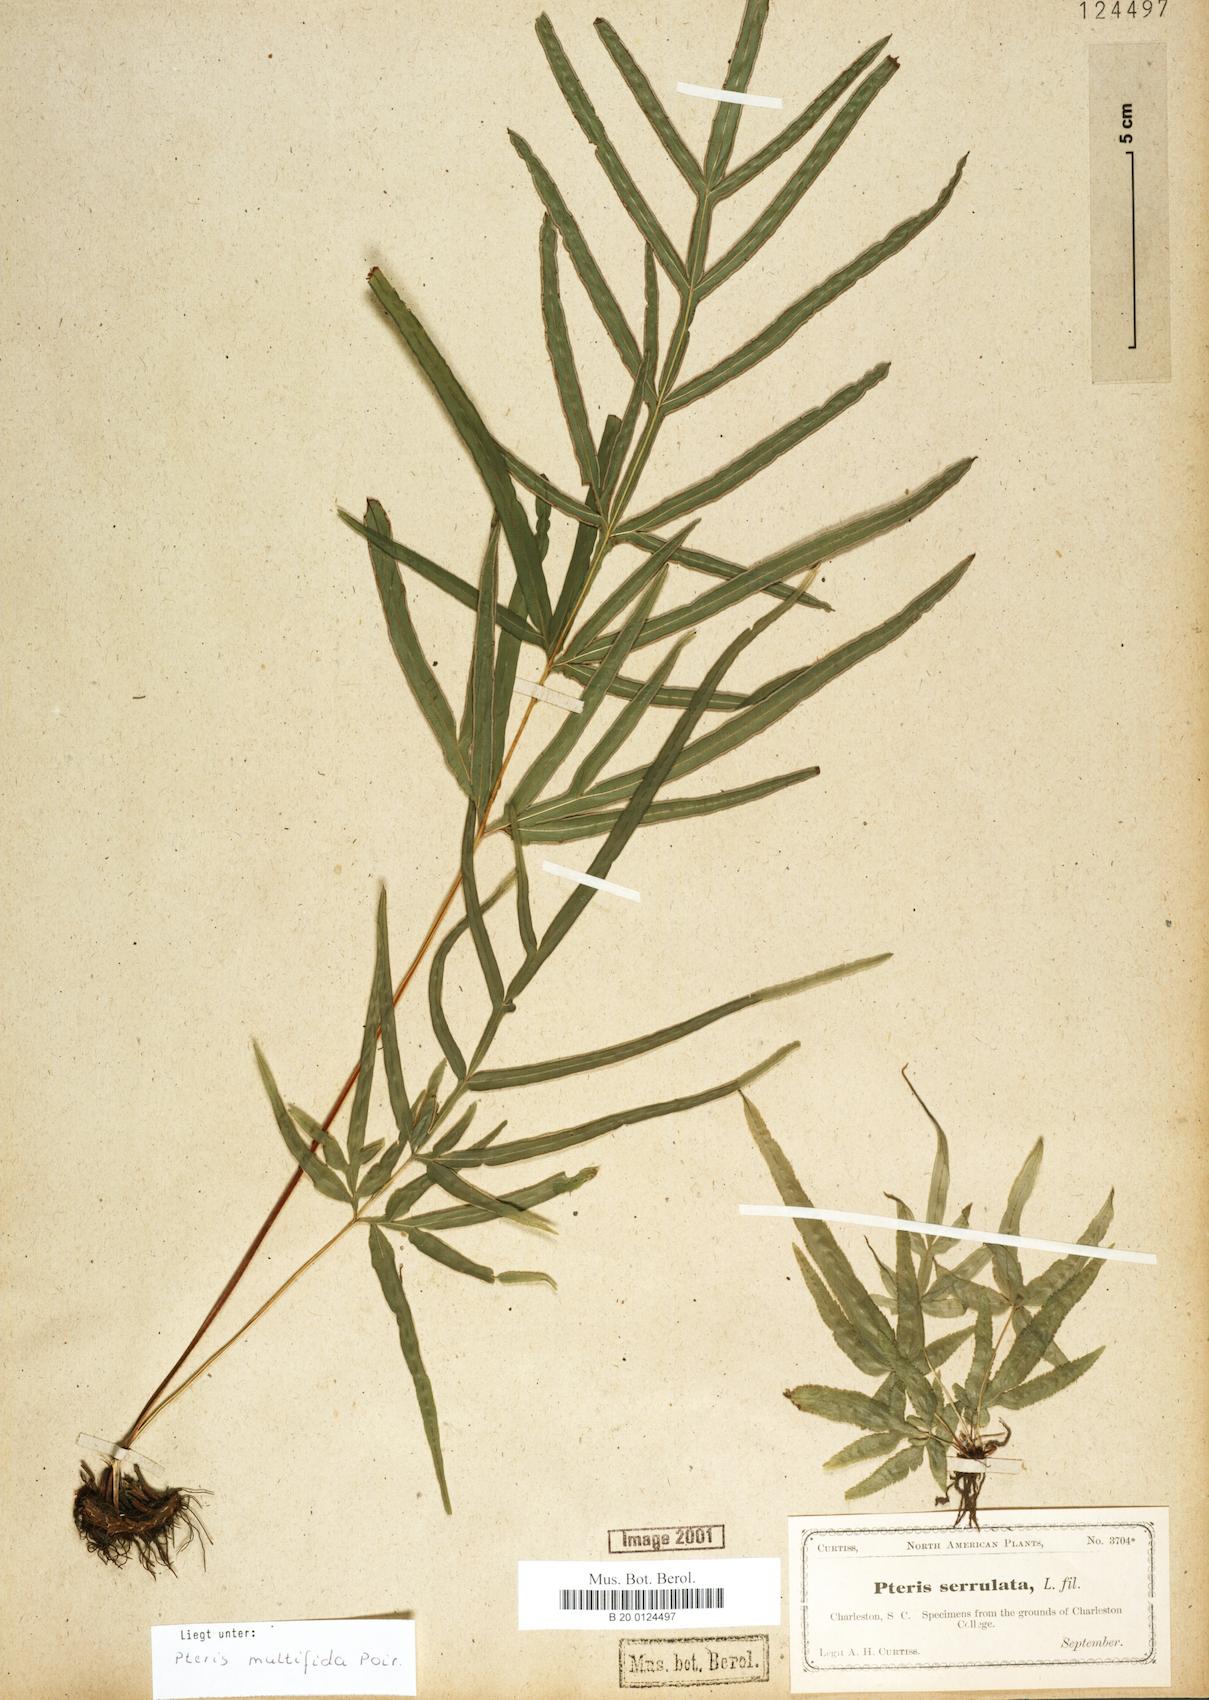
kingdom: Plantae
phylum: Tracheophyta
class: Polypodiopsida
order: Polypodiales
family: Pteridaceae
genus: Pteris
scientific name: Pteris multifida
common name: Spider brake
